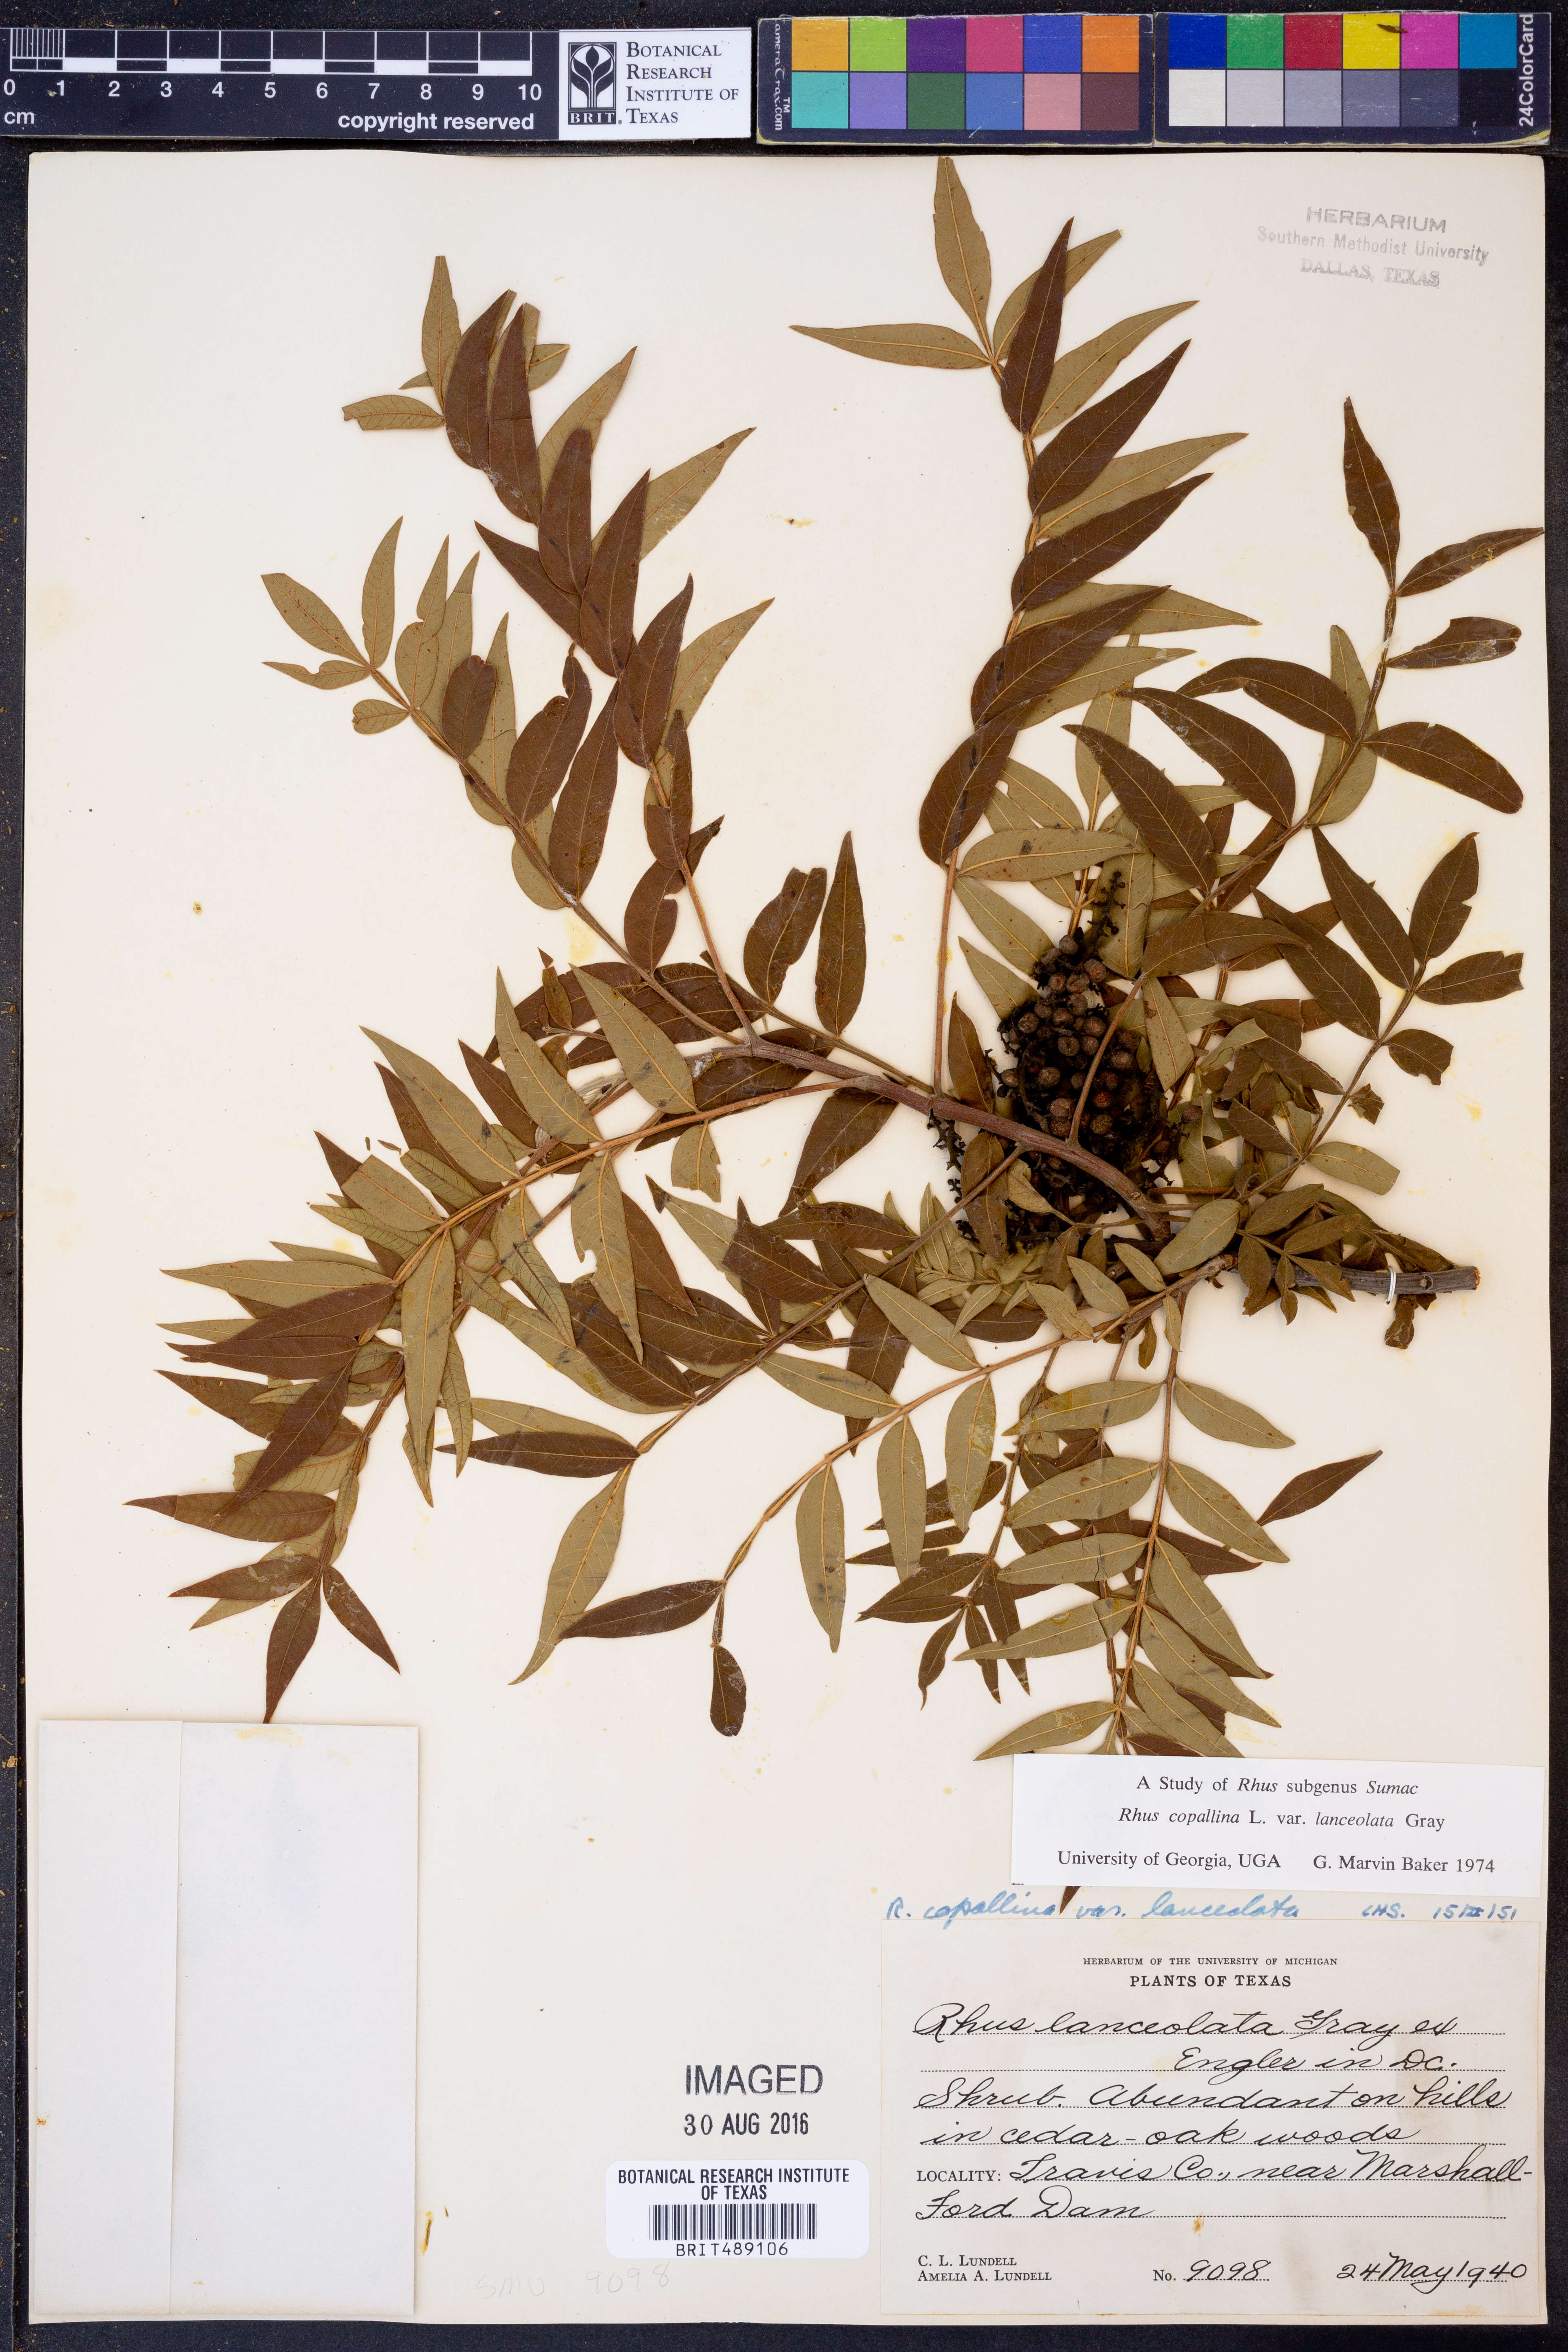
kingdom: Plantae
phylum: Tracheophyta
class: Magnoliopsida
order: Sapindales
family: Anacardiaceae
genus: Rhus
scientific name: Rhus lanceolata
